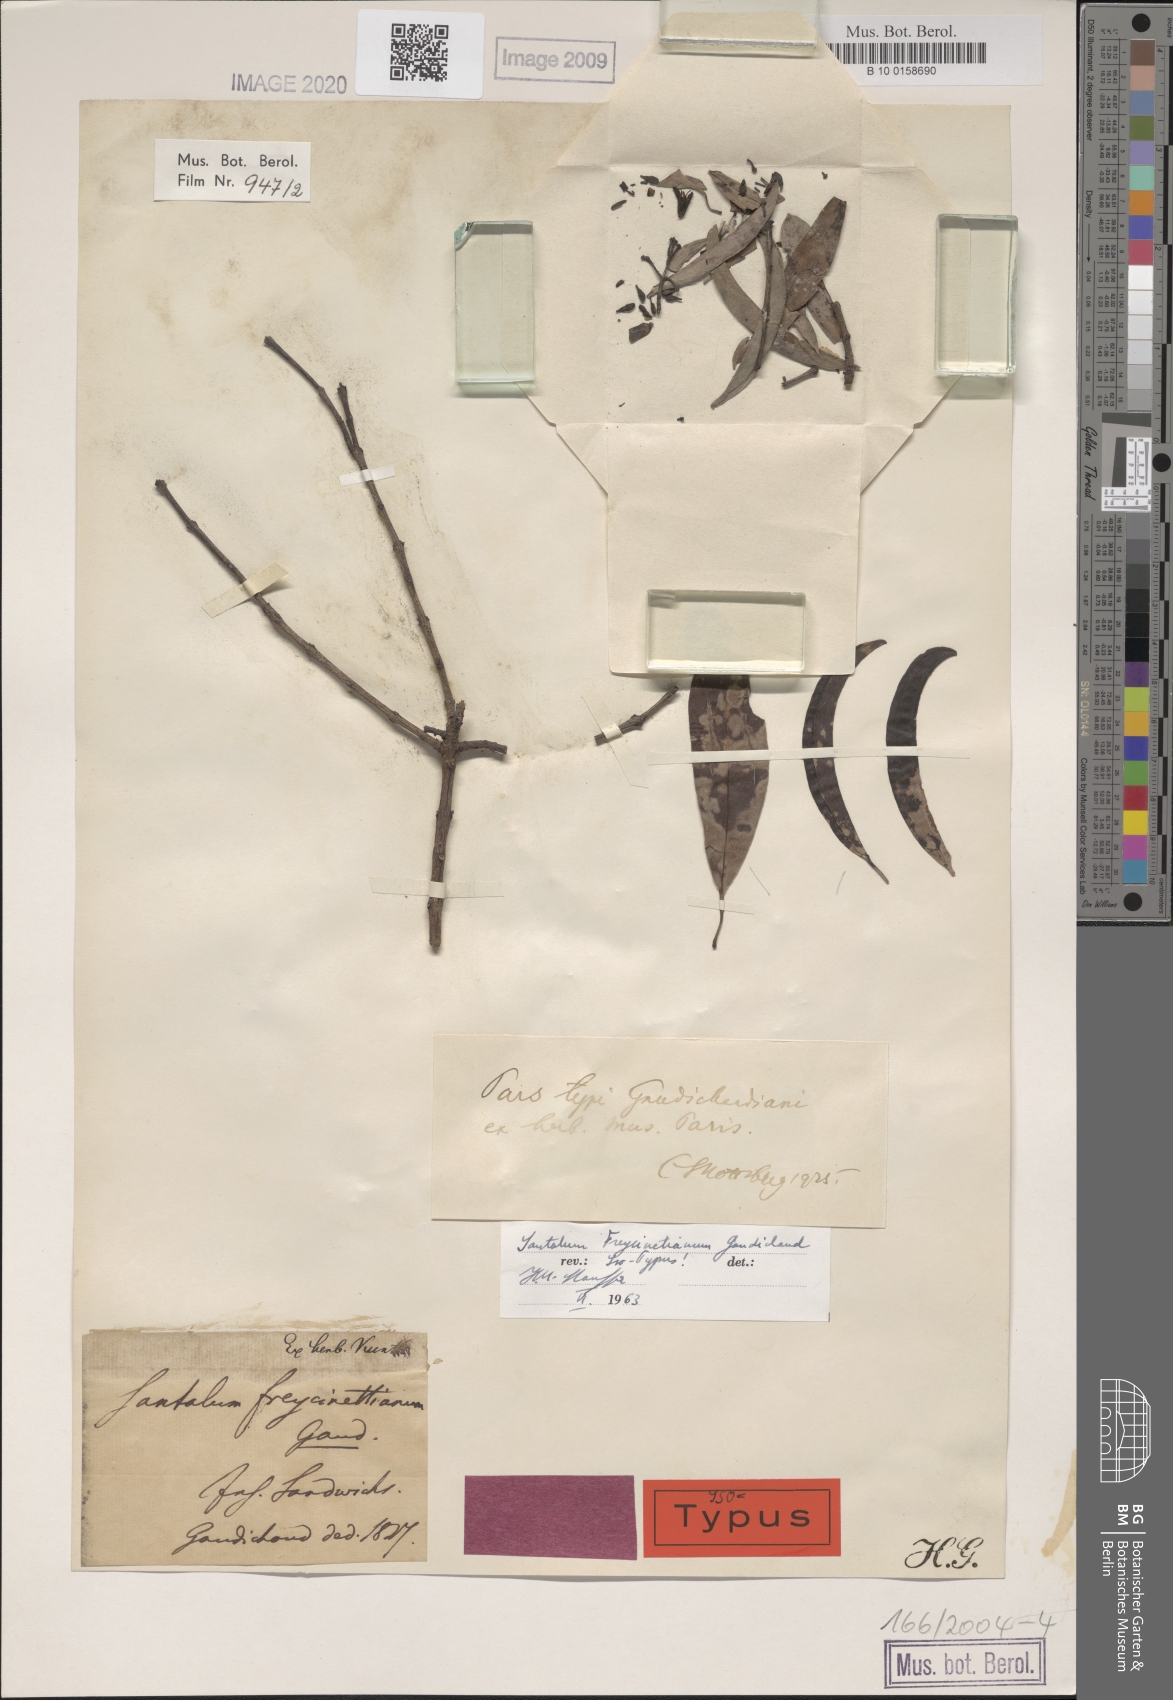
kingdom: Plantae
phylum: Tracheophyta
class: Magnoliopsida
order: Santalales
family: Santalaceae
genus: Santalum
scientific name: Santalum freycinetianum
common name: Lanai sandalwood
